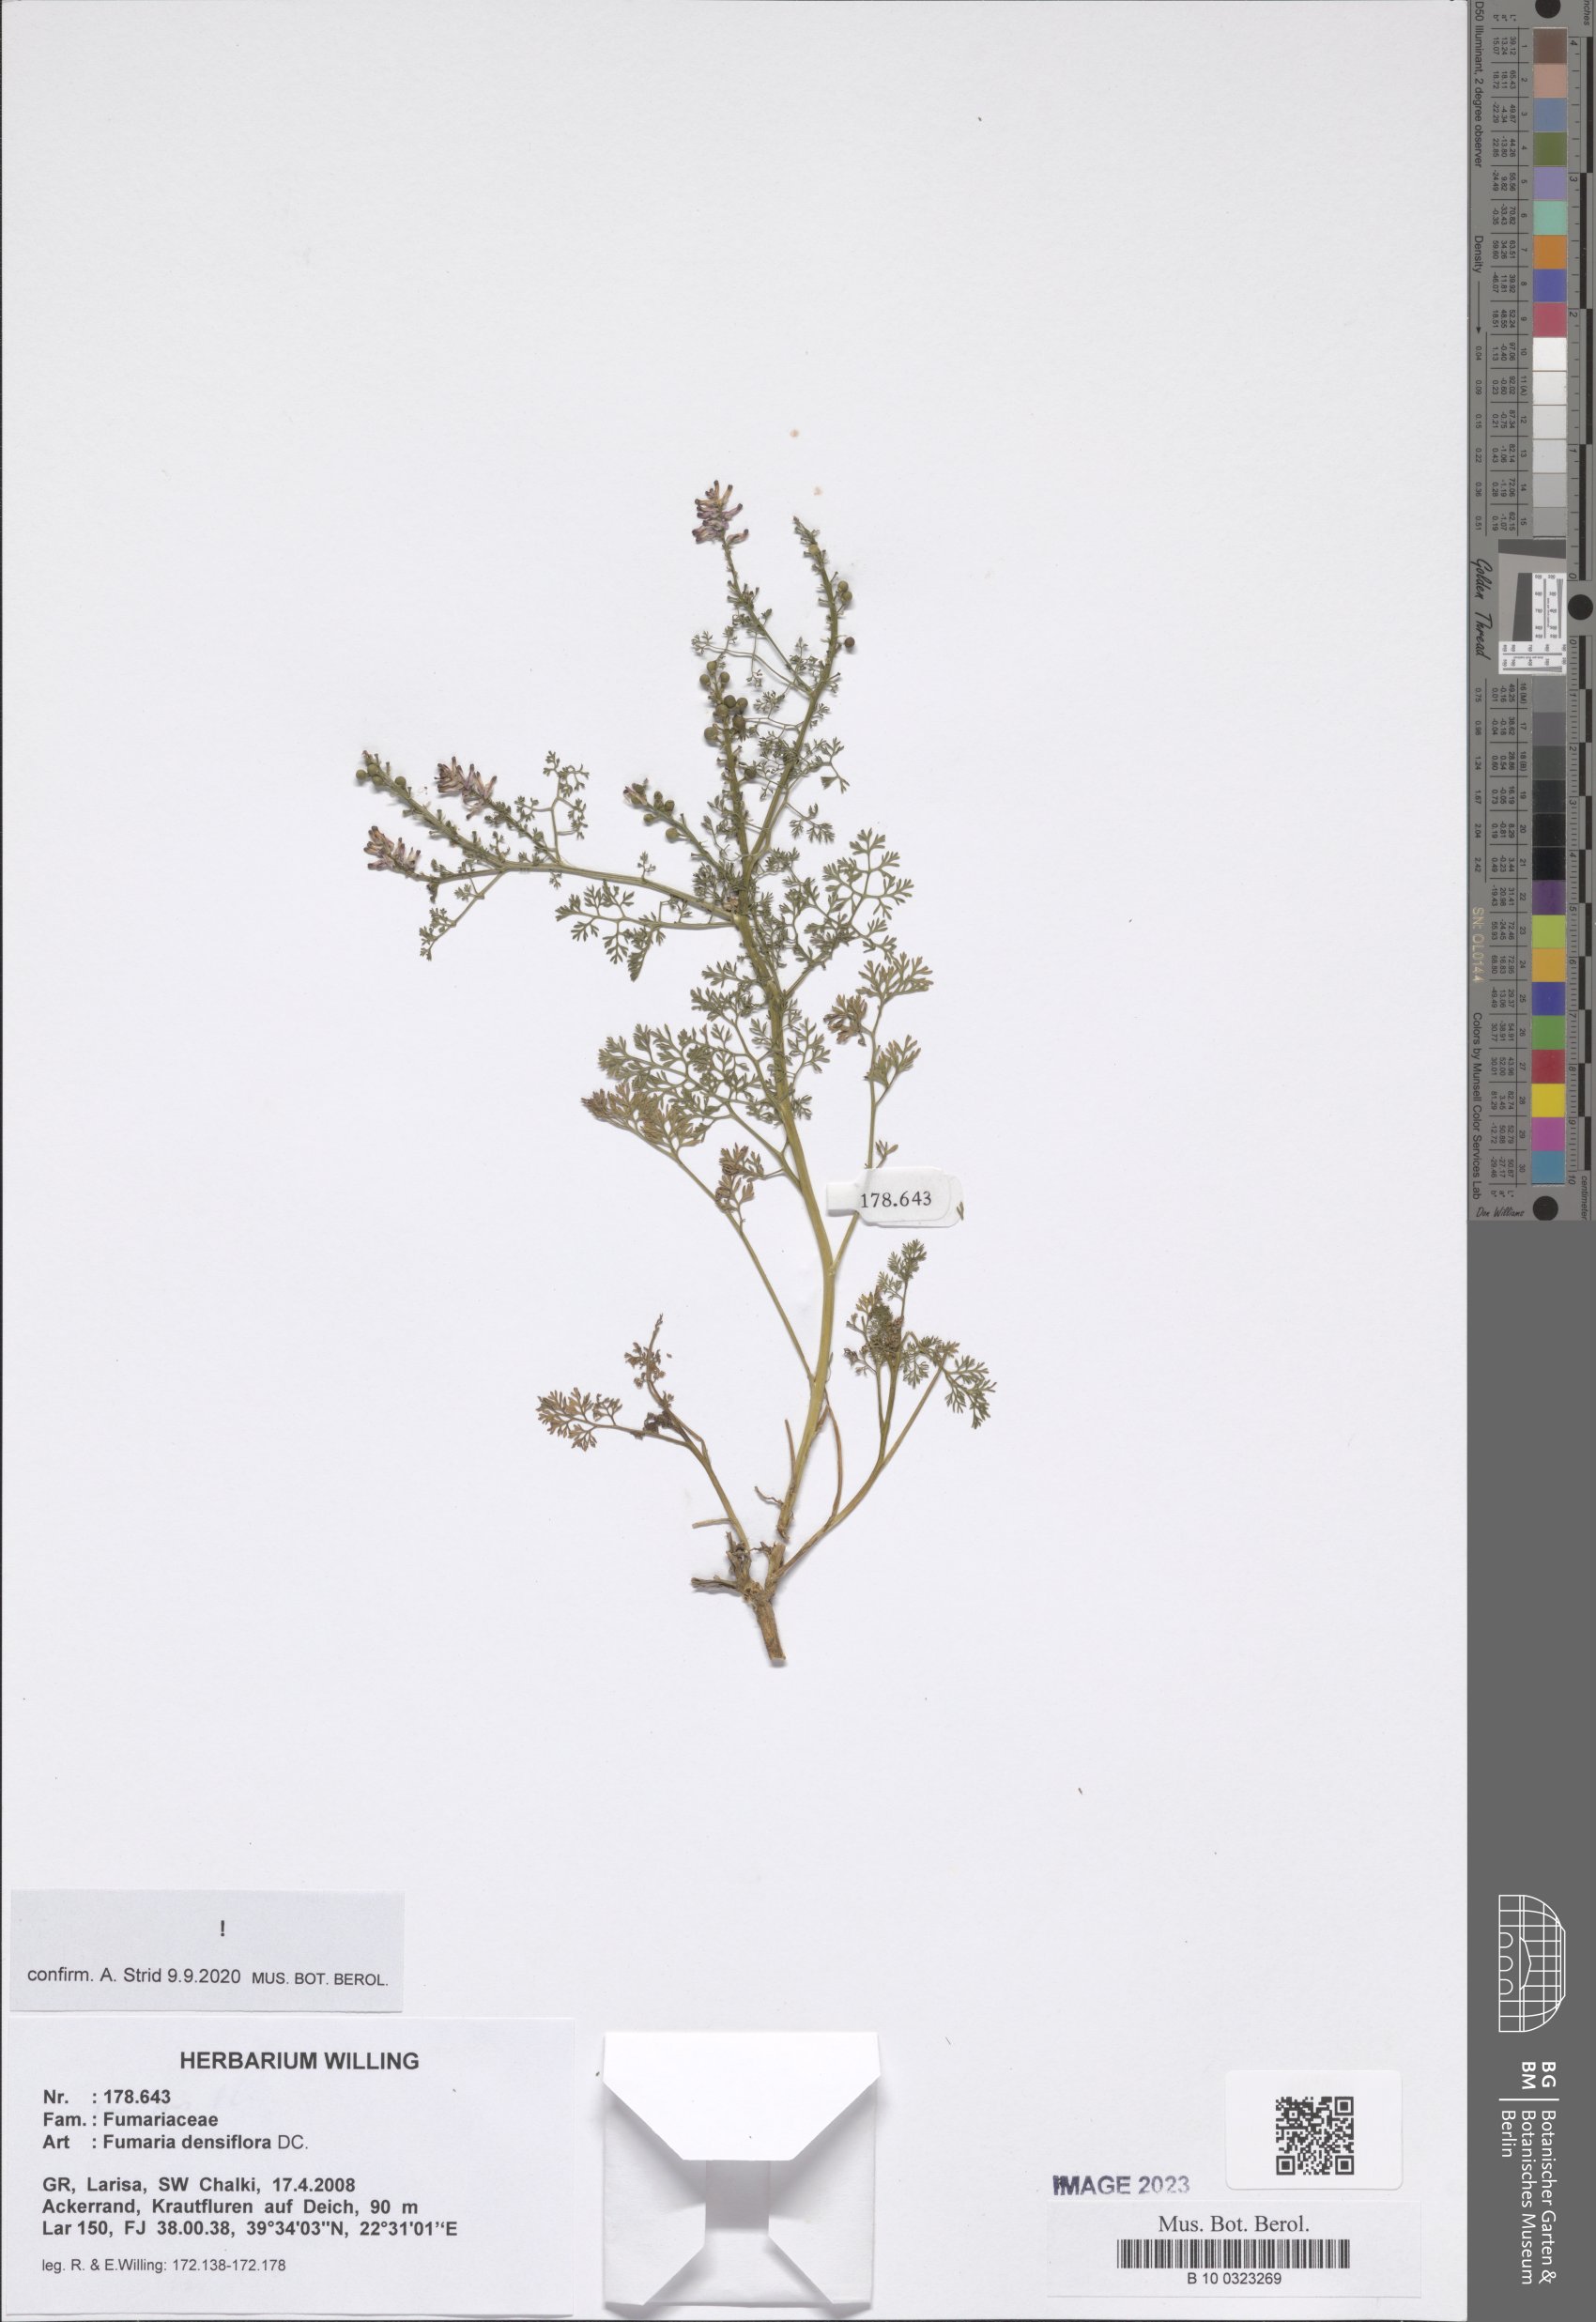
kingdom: Plantae
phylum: Tracheophyta
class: Magnoliopsida
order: Ranunculales
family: Papaveraceae
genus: Fumaria
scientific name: Fumaria densiflora
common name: Dense-flowered fumitory
